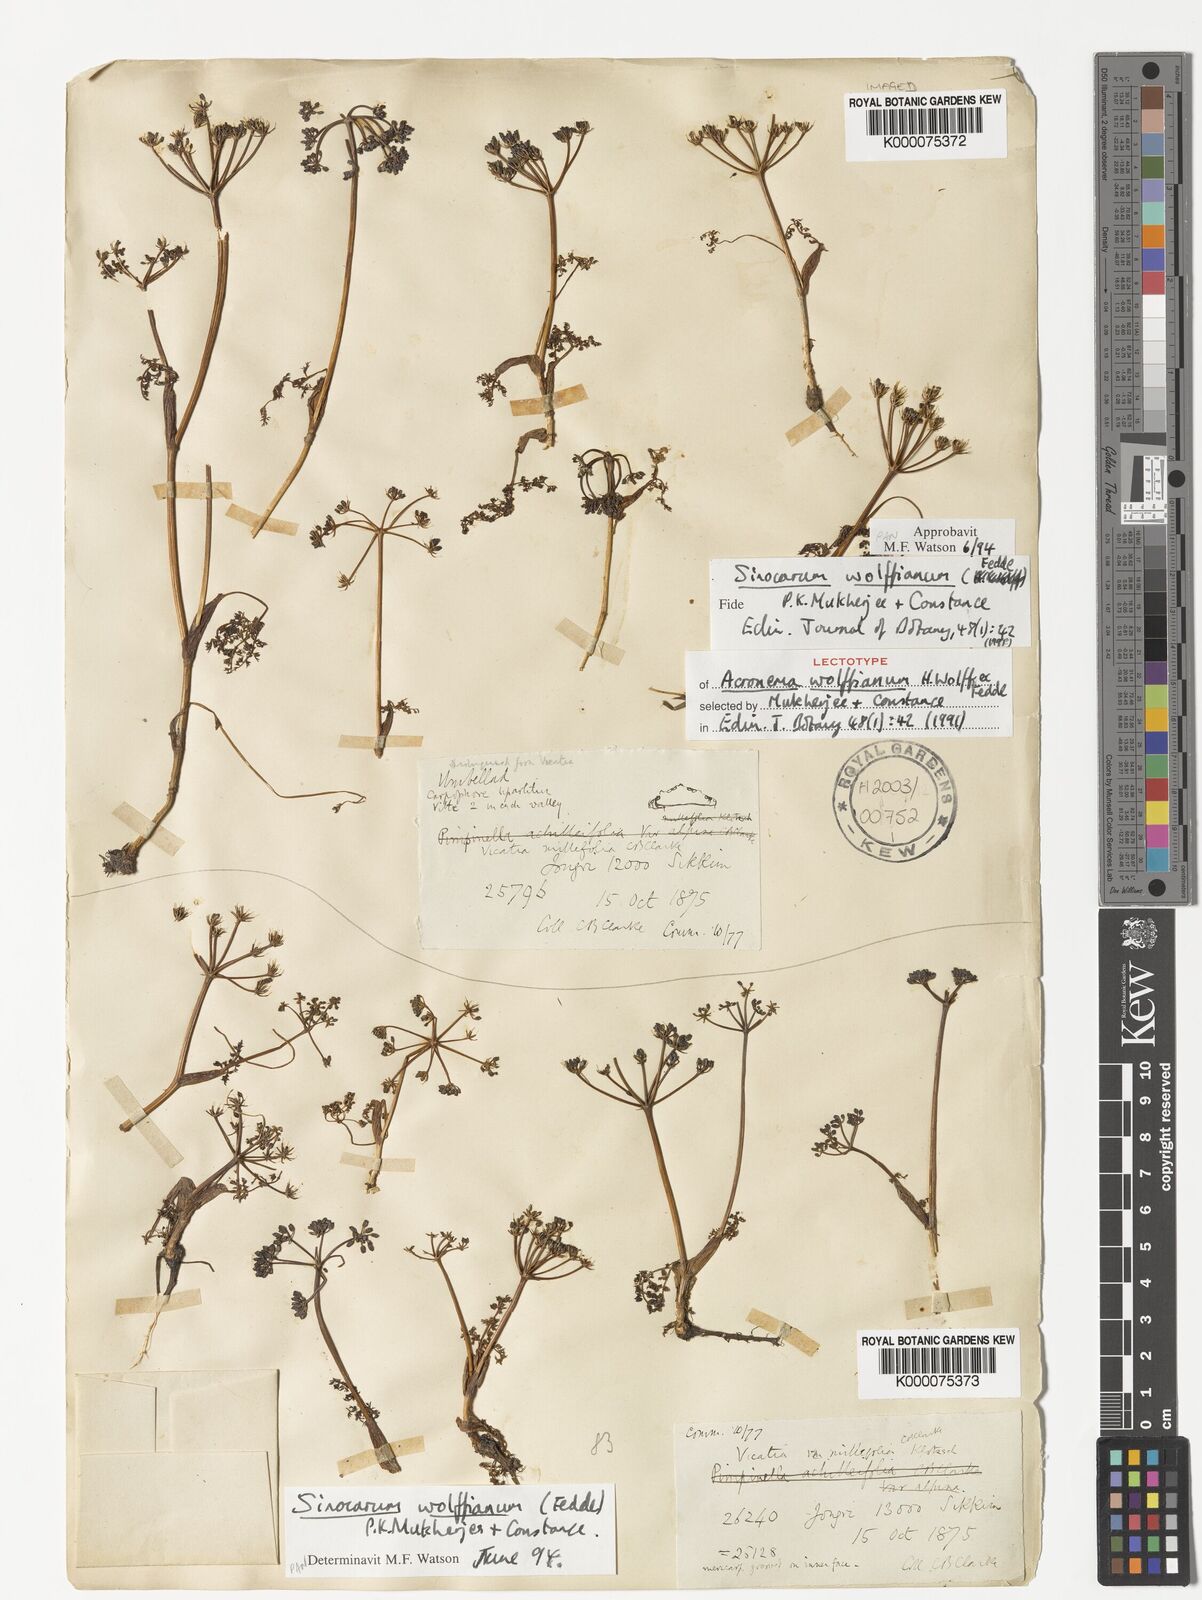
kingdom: Plantae
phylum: Tracheophyta
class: Magnoliopsida
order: Apiales
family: Apiaceae
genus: Trachydium
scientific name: Trachydium souliei
